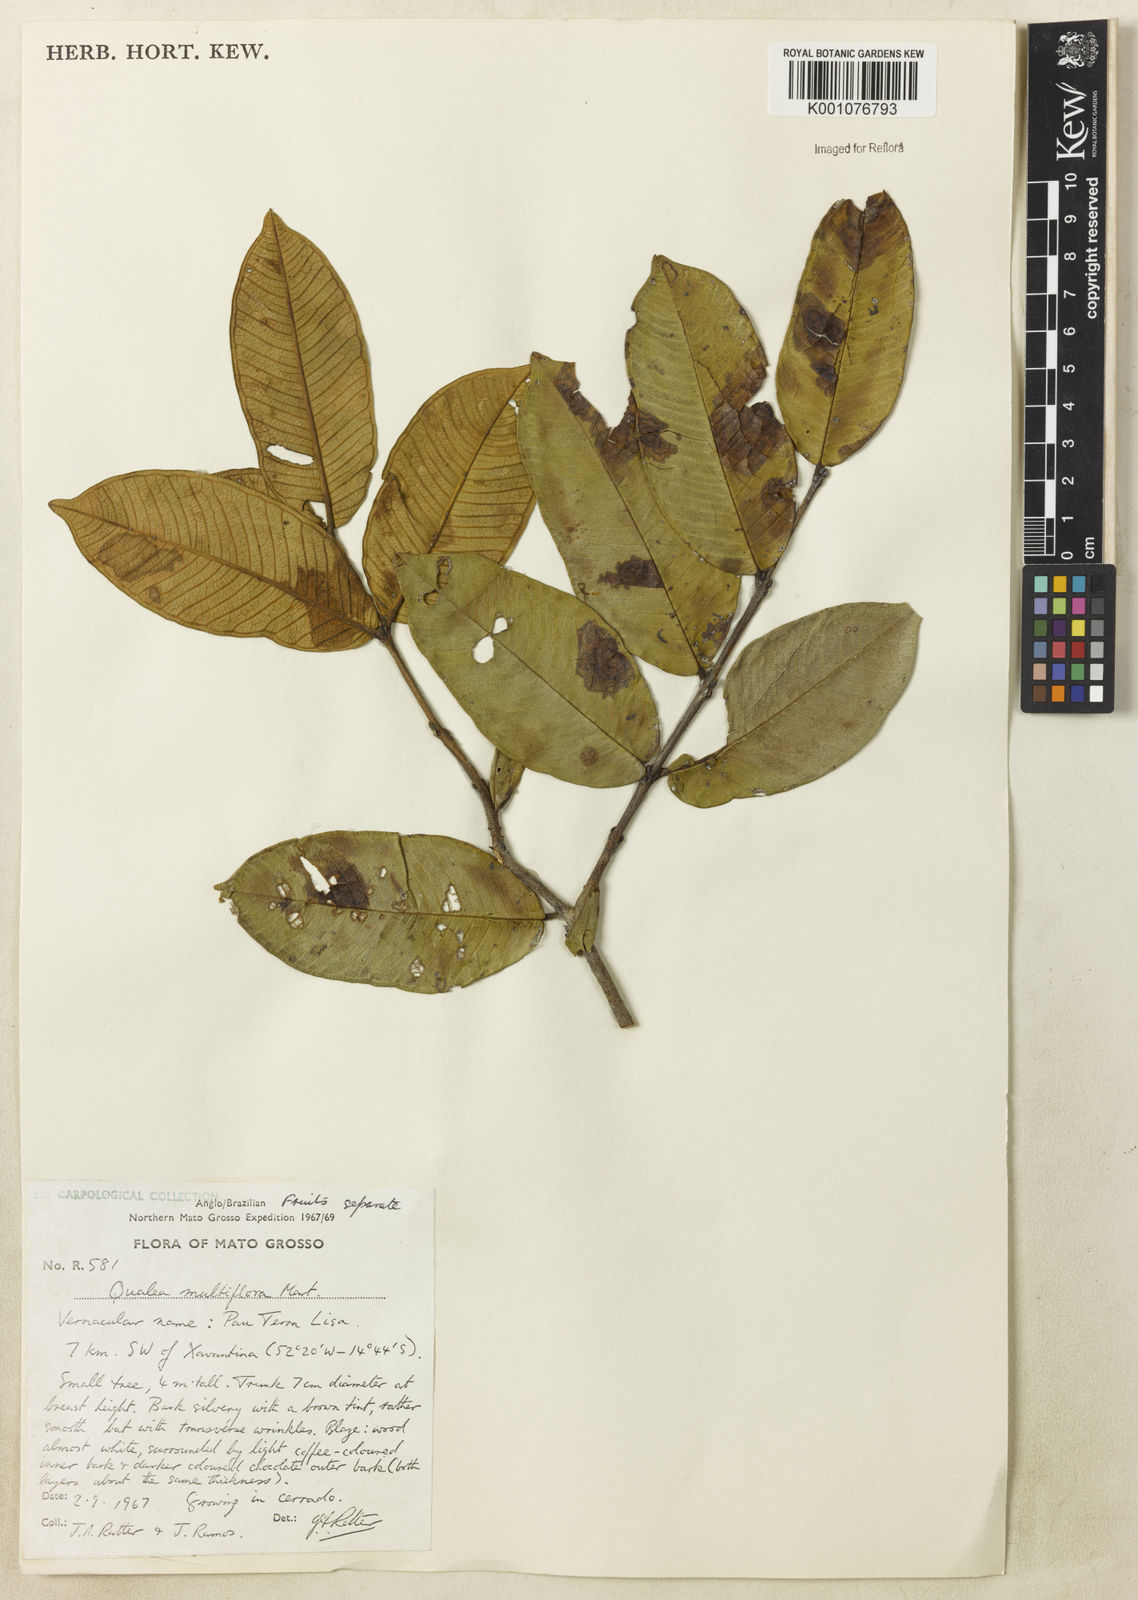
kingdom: Plantae
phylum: Tracheophyta
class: Magnoliopsida
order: Myrtales
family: Vochysiaceae
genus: Qualea
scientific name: Qualea multiflora
